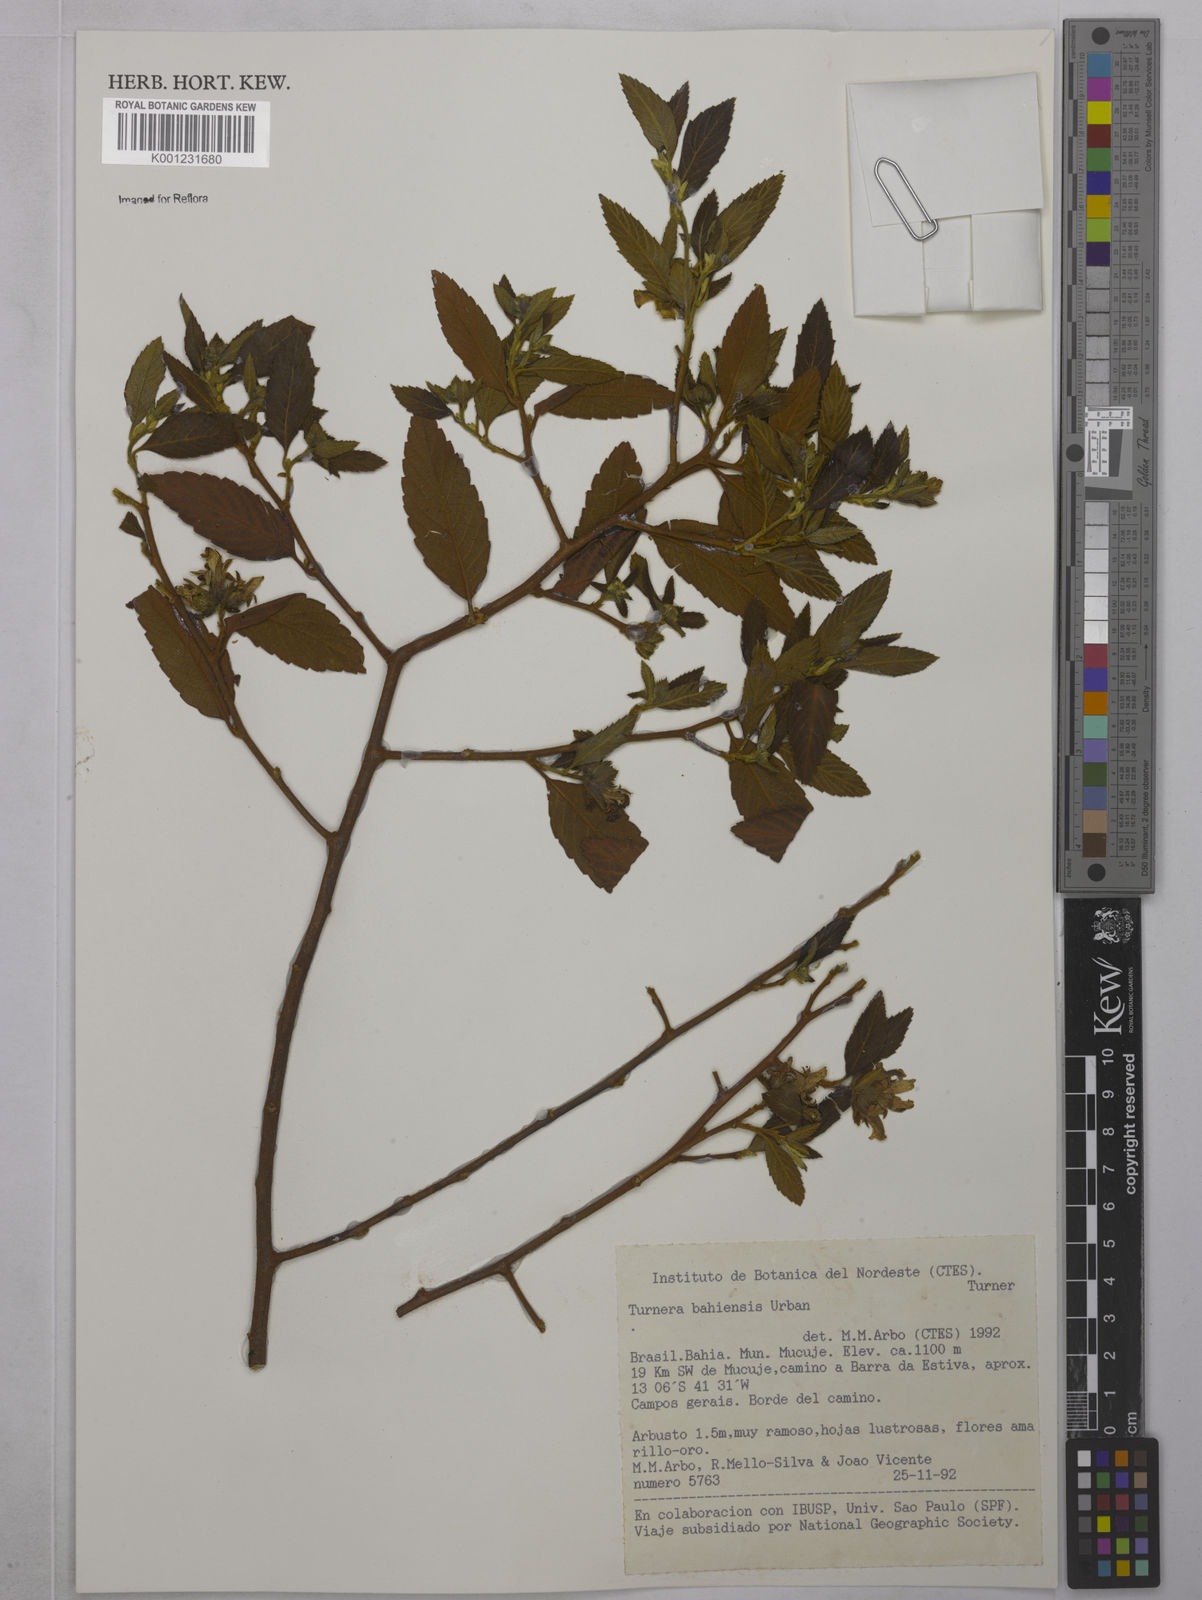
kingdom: Plantae
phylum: Tracheophyta
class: Magnoliopsida
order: Malpighiales
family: Turneraceae
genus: Turnera
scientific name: Turnera bahiensis
